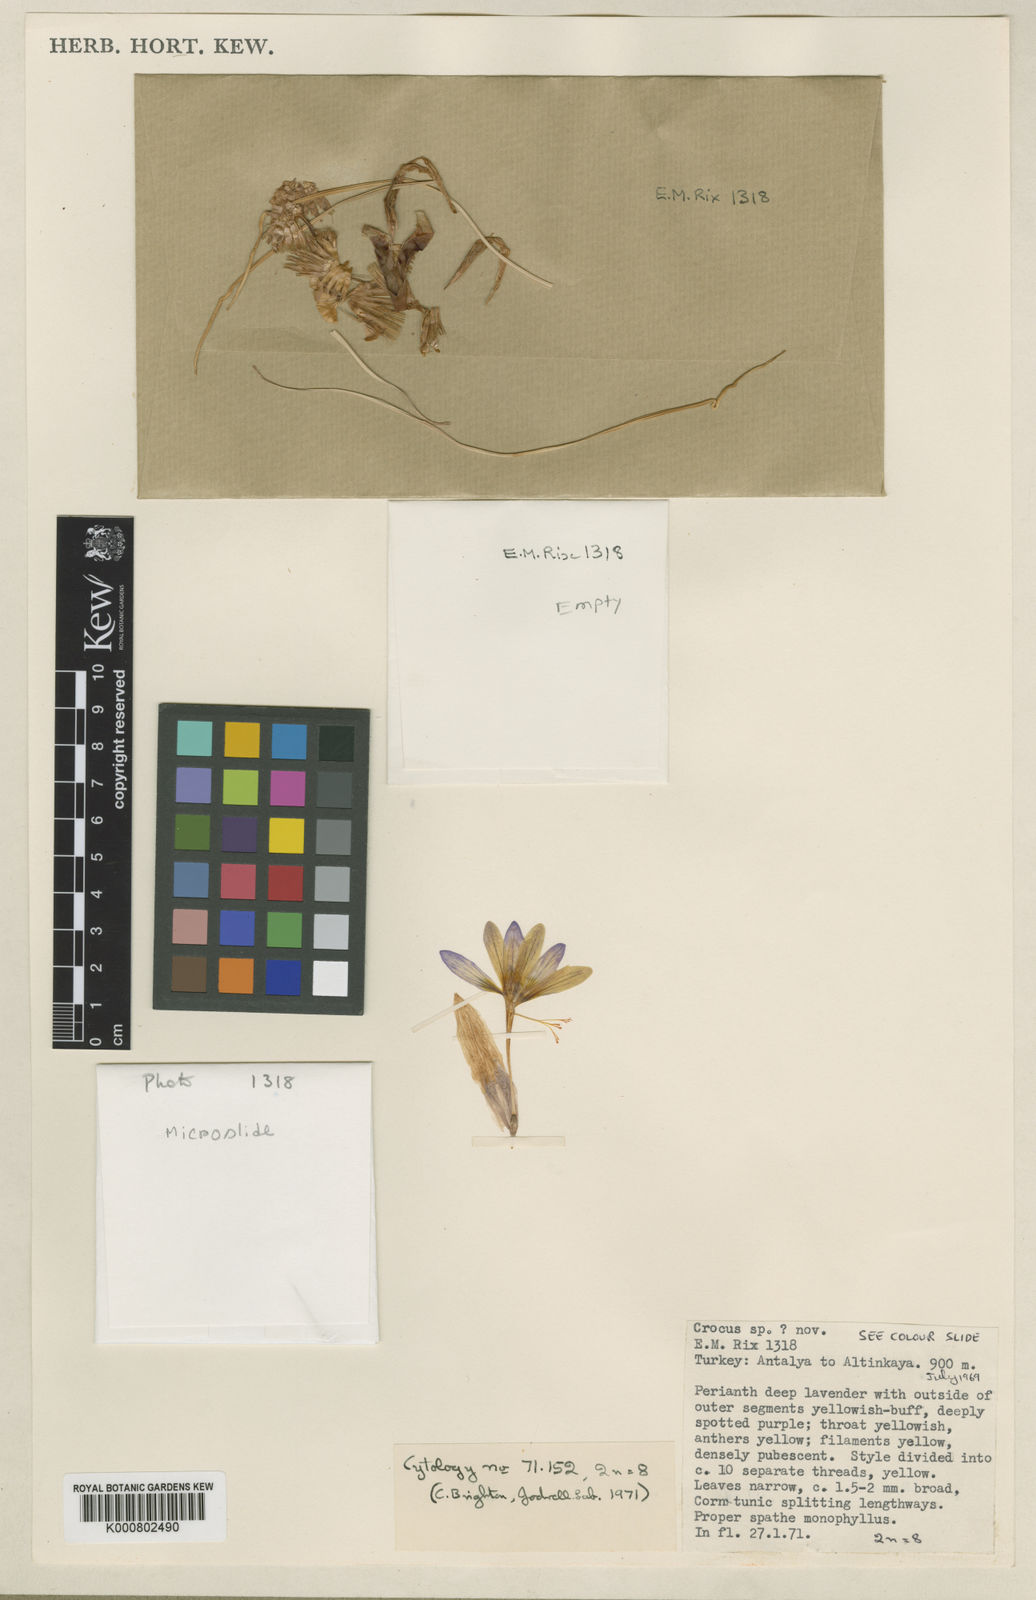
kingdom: Plantae
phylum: Tracheophyta
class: Liliopsida
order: Asparagales
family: Iridaceae
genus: Crocus
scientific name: Crocus antalyensis
